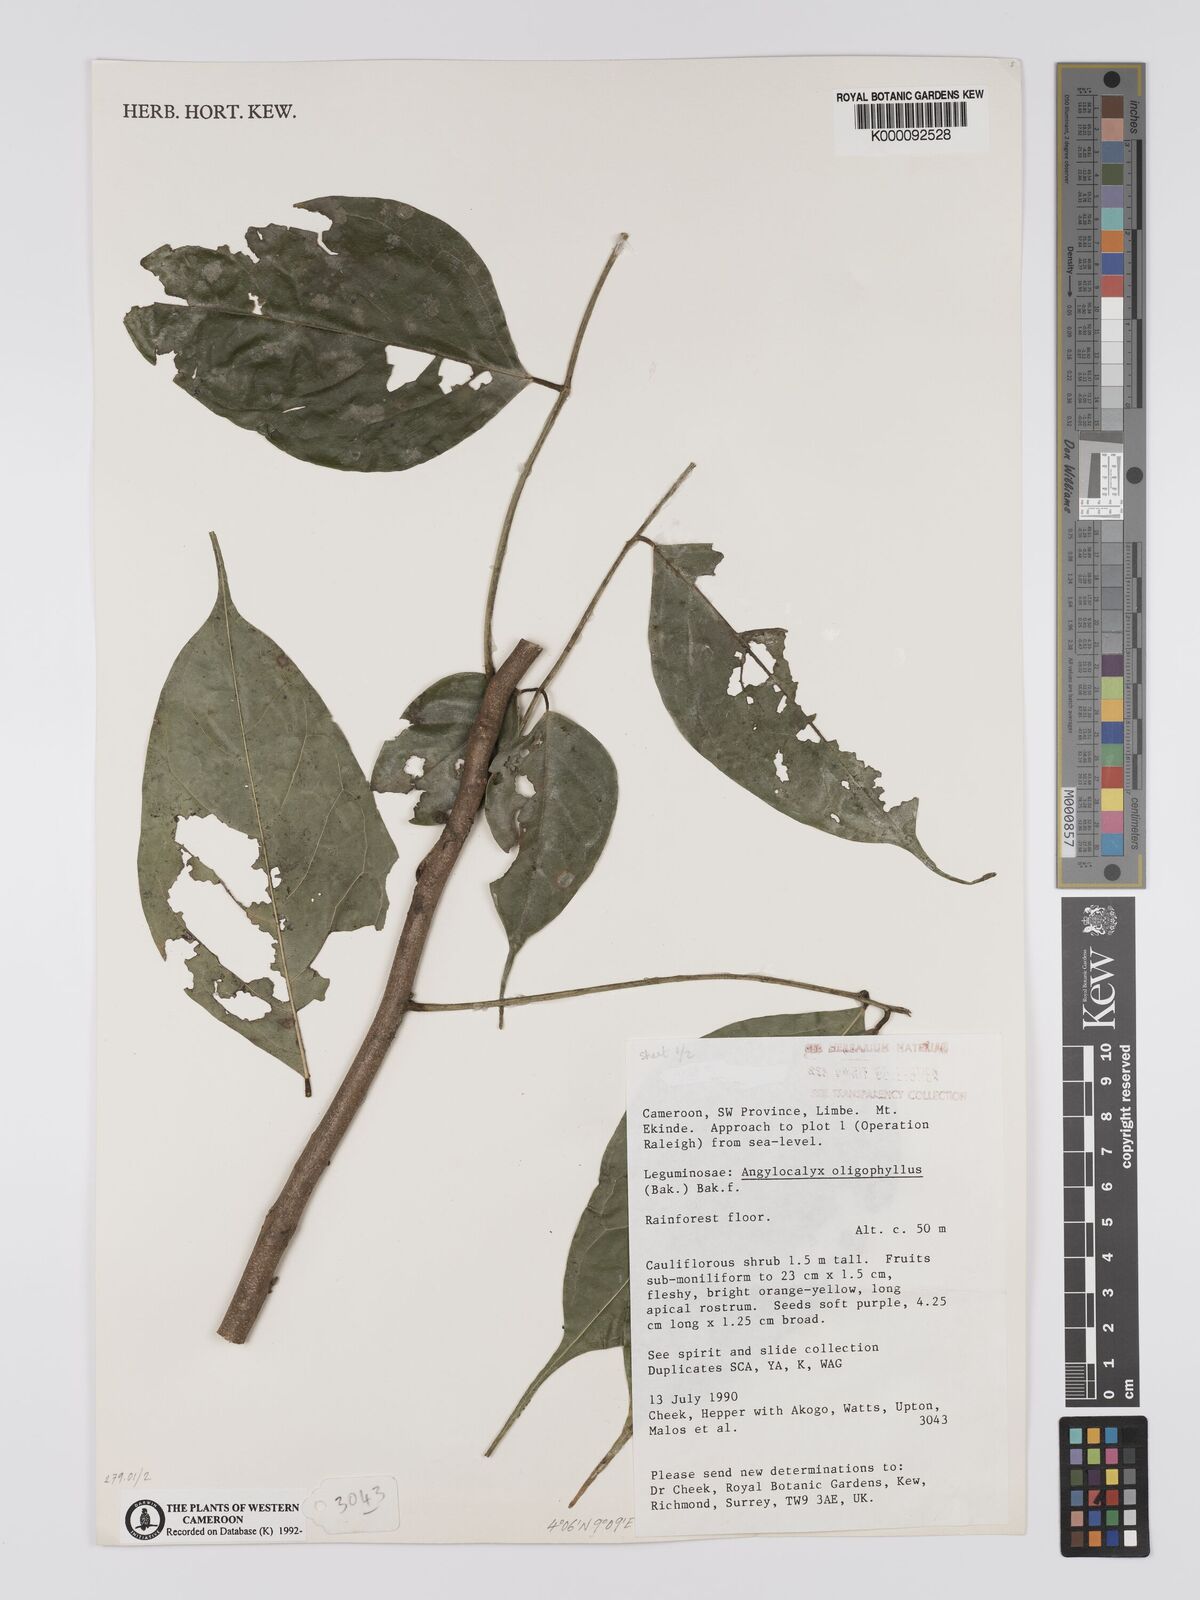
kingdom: Plantae
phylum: Tracheophyta
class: Magnoliopsida
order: Fabales
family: Fabaceae
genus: Angylocalyx
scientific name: Angylocalyx oligophyllus
